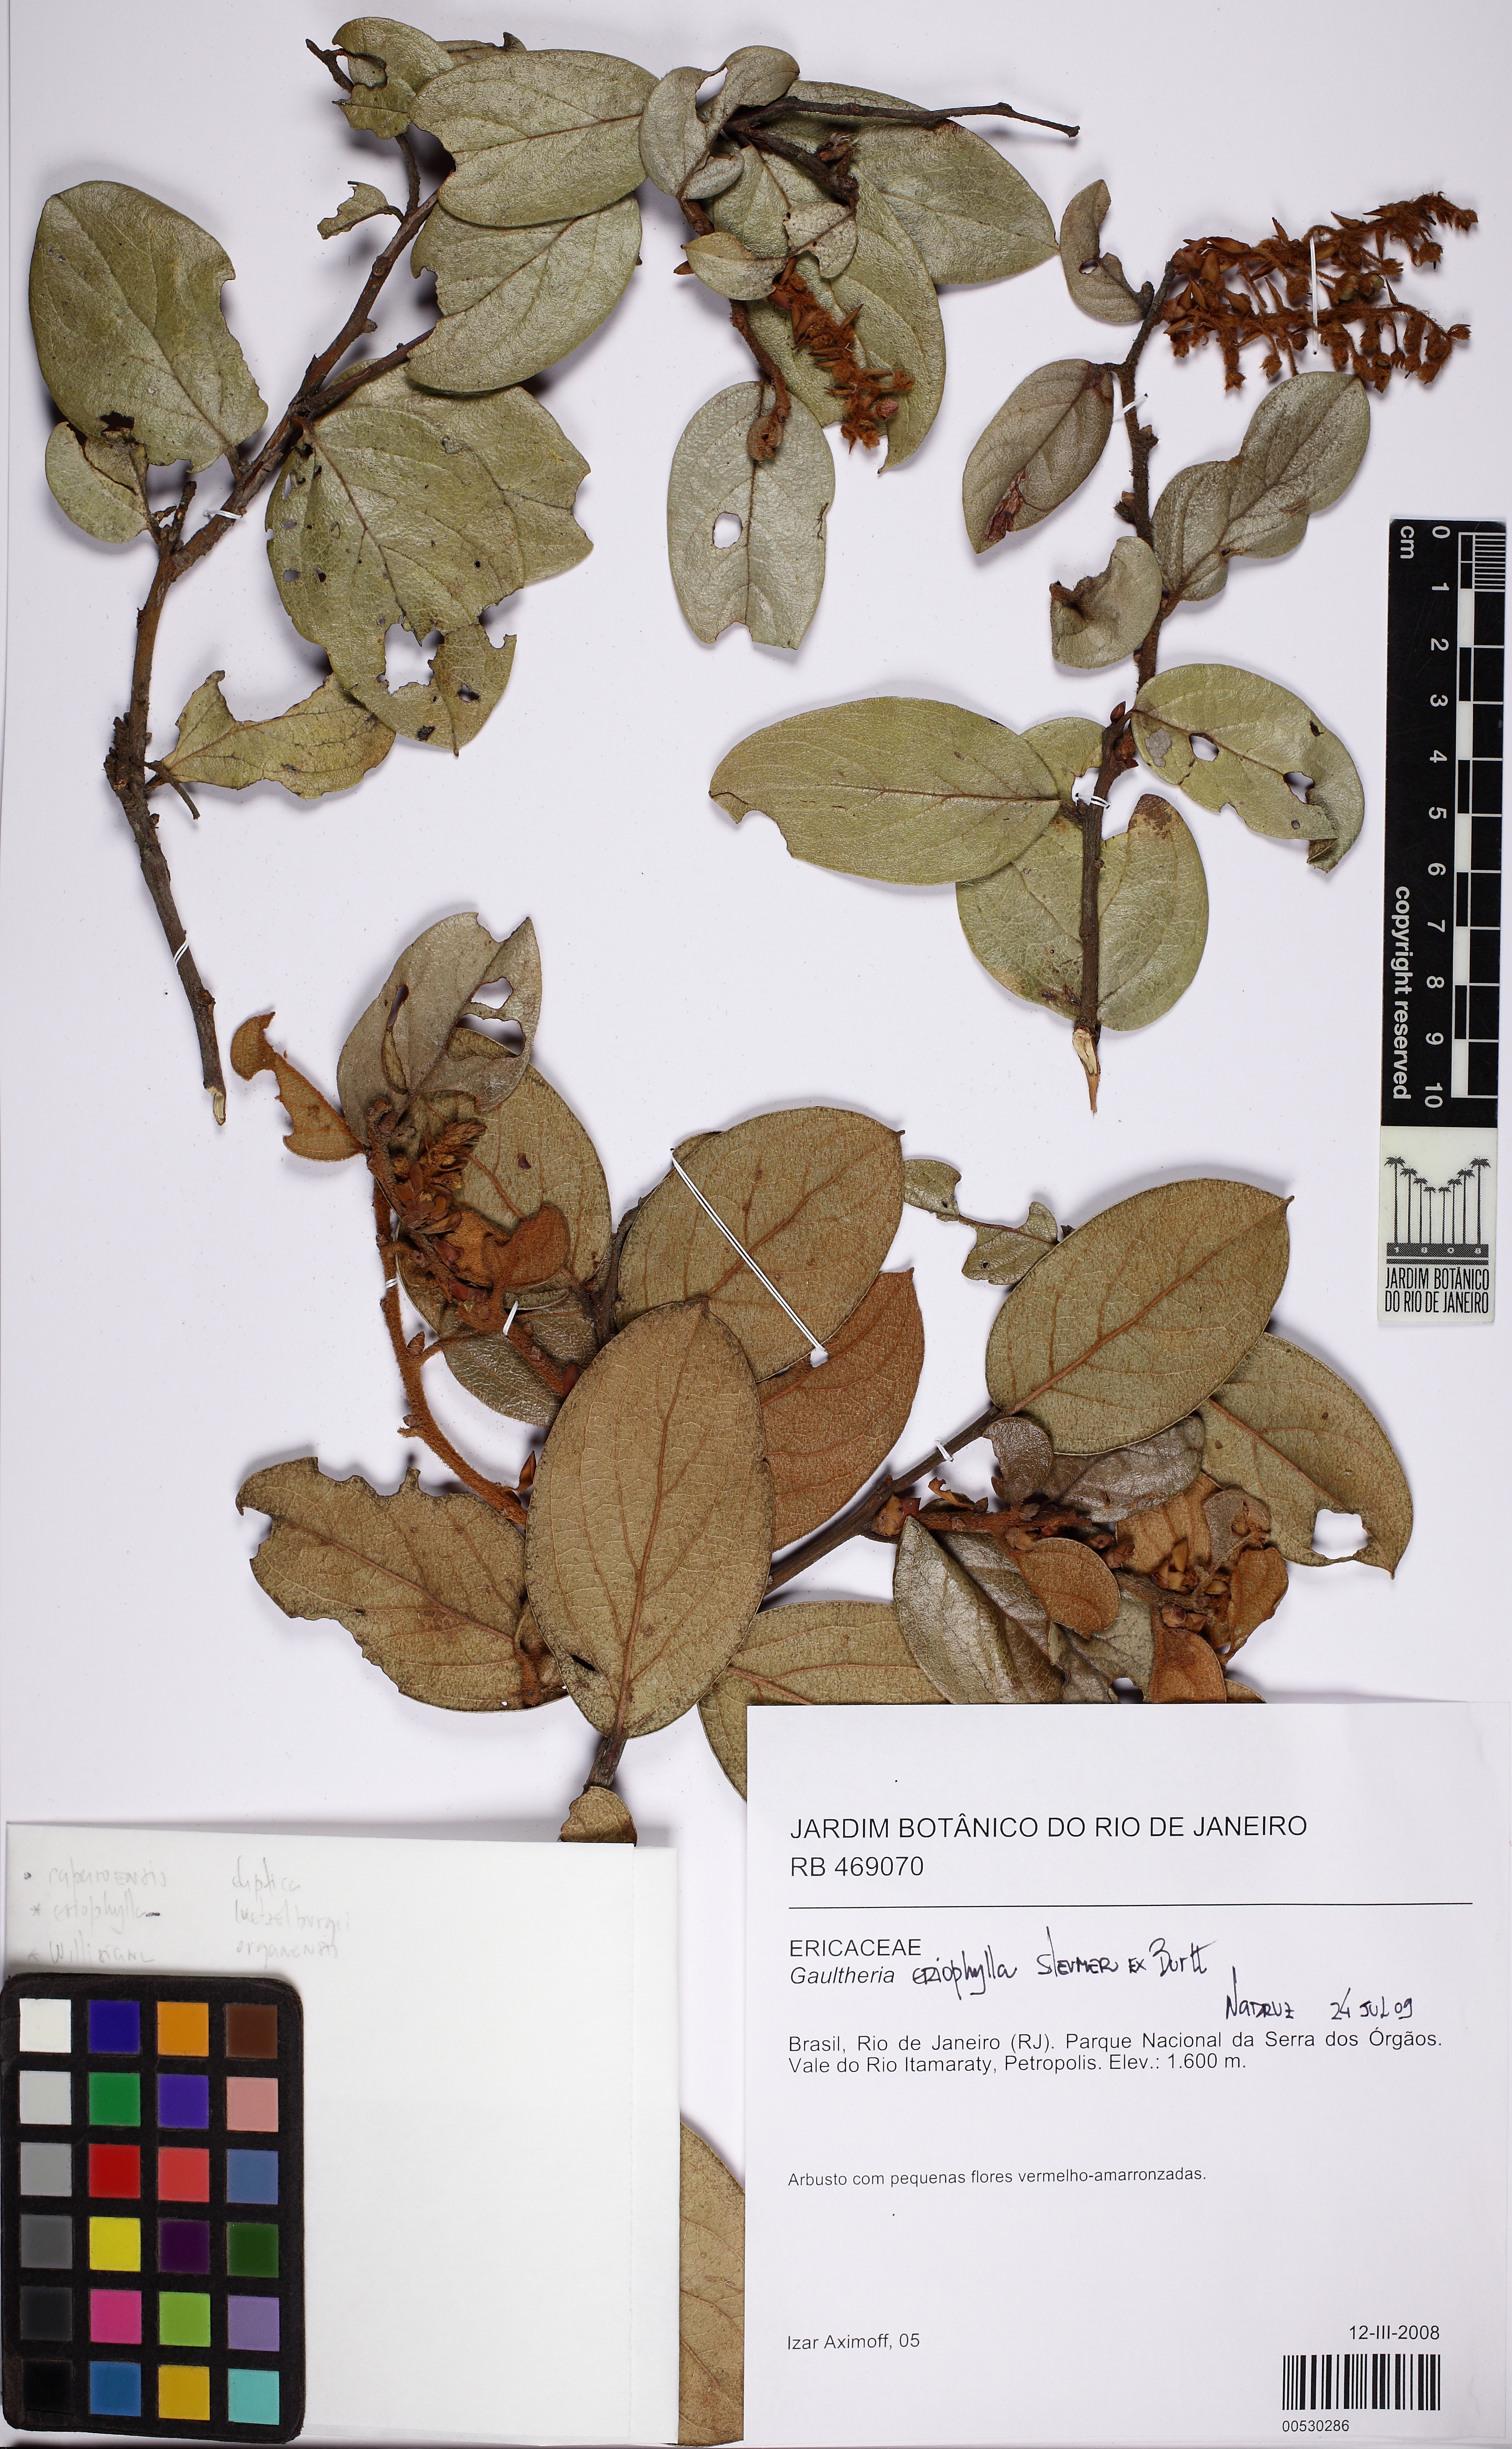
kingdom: Plantae
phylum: Tracheophyta
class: Magnoliopsida
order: Ericales
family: Ericaceae
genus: Gaultheria
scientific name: Gaultheria eriophylla
